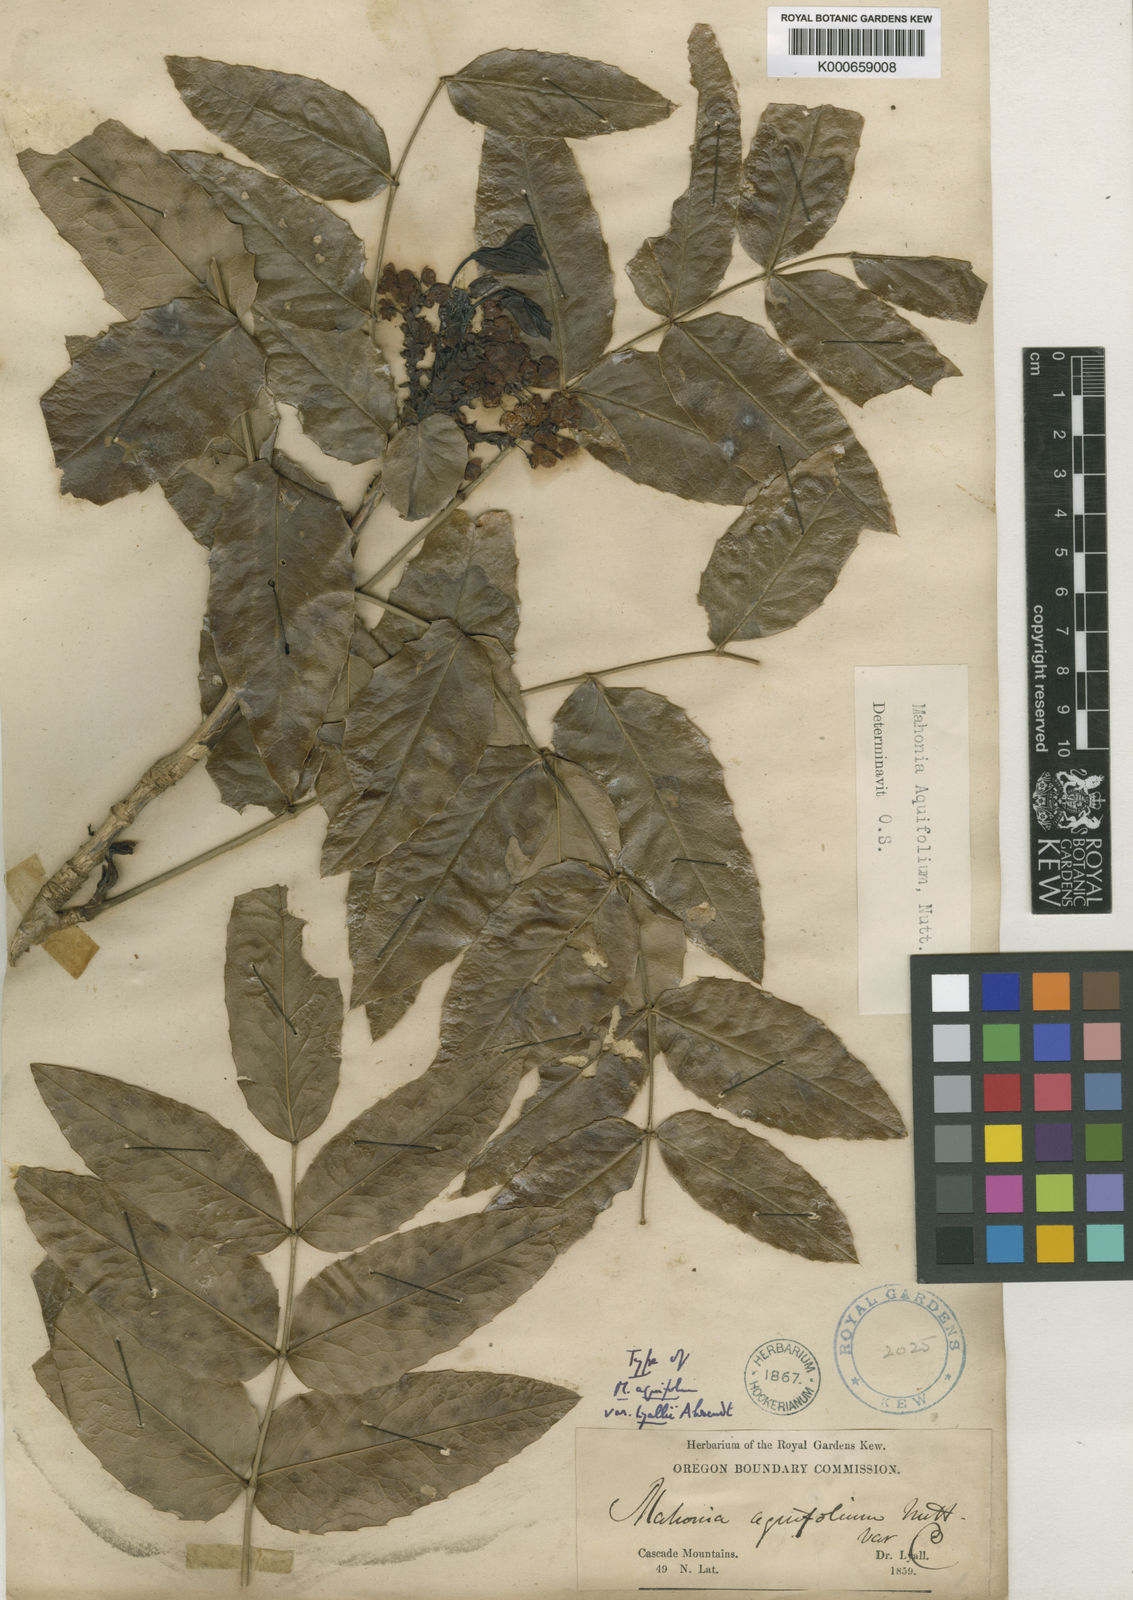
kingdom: Plantae
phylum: Tracheophyta
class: Magnoliopsida
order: Ranunculales
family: Berberidaceae
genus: Mahonia
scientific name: Mahonia aquifolium
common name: Oregon-grape
